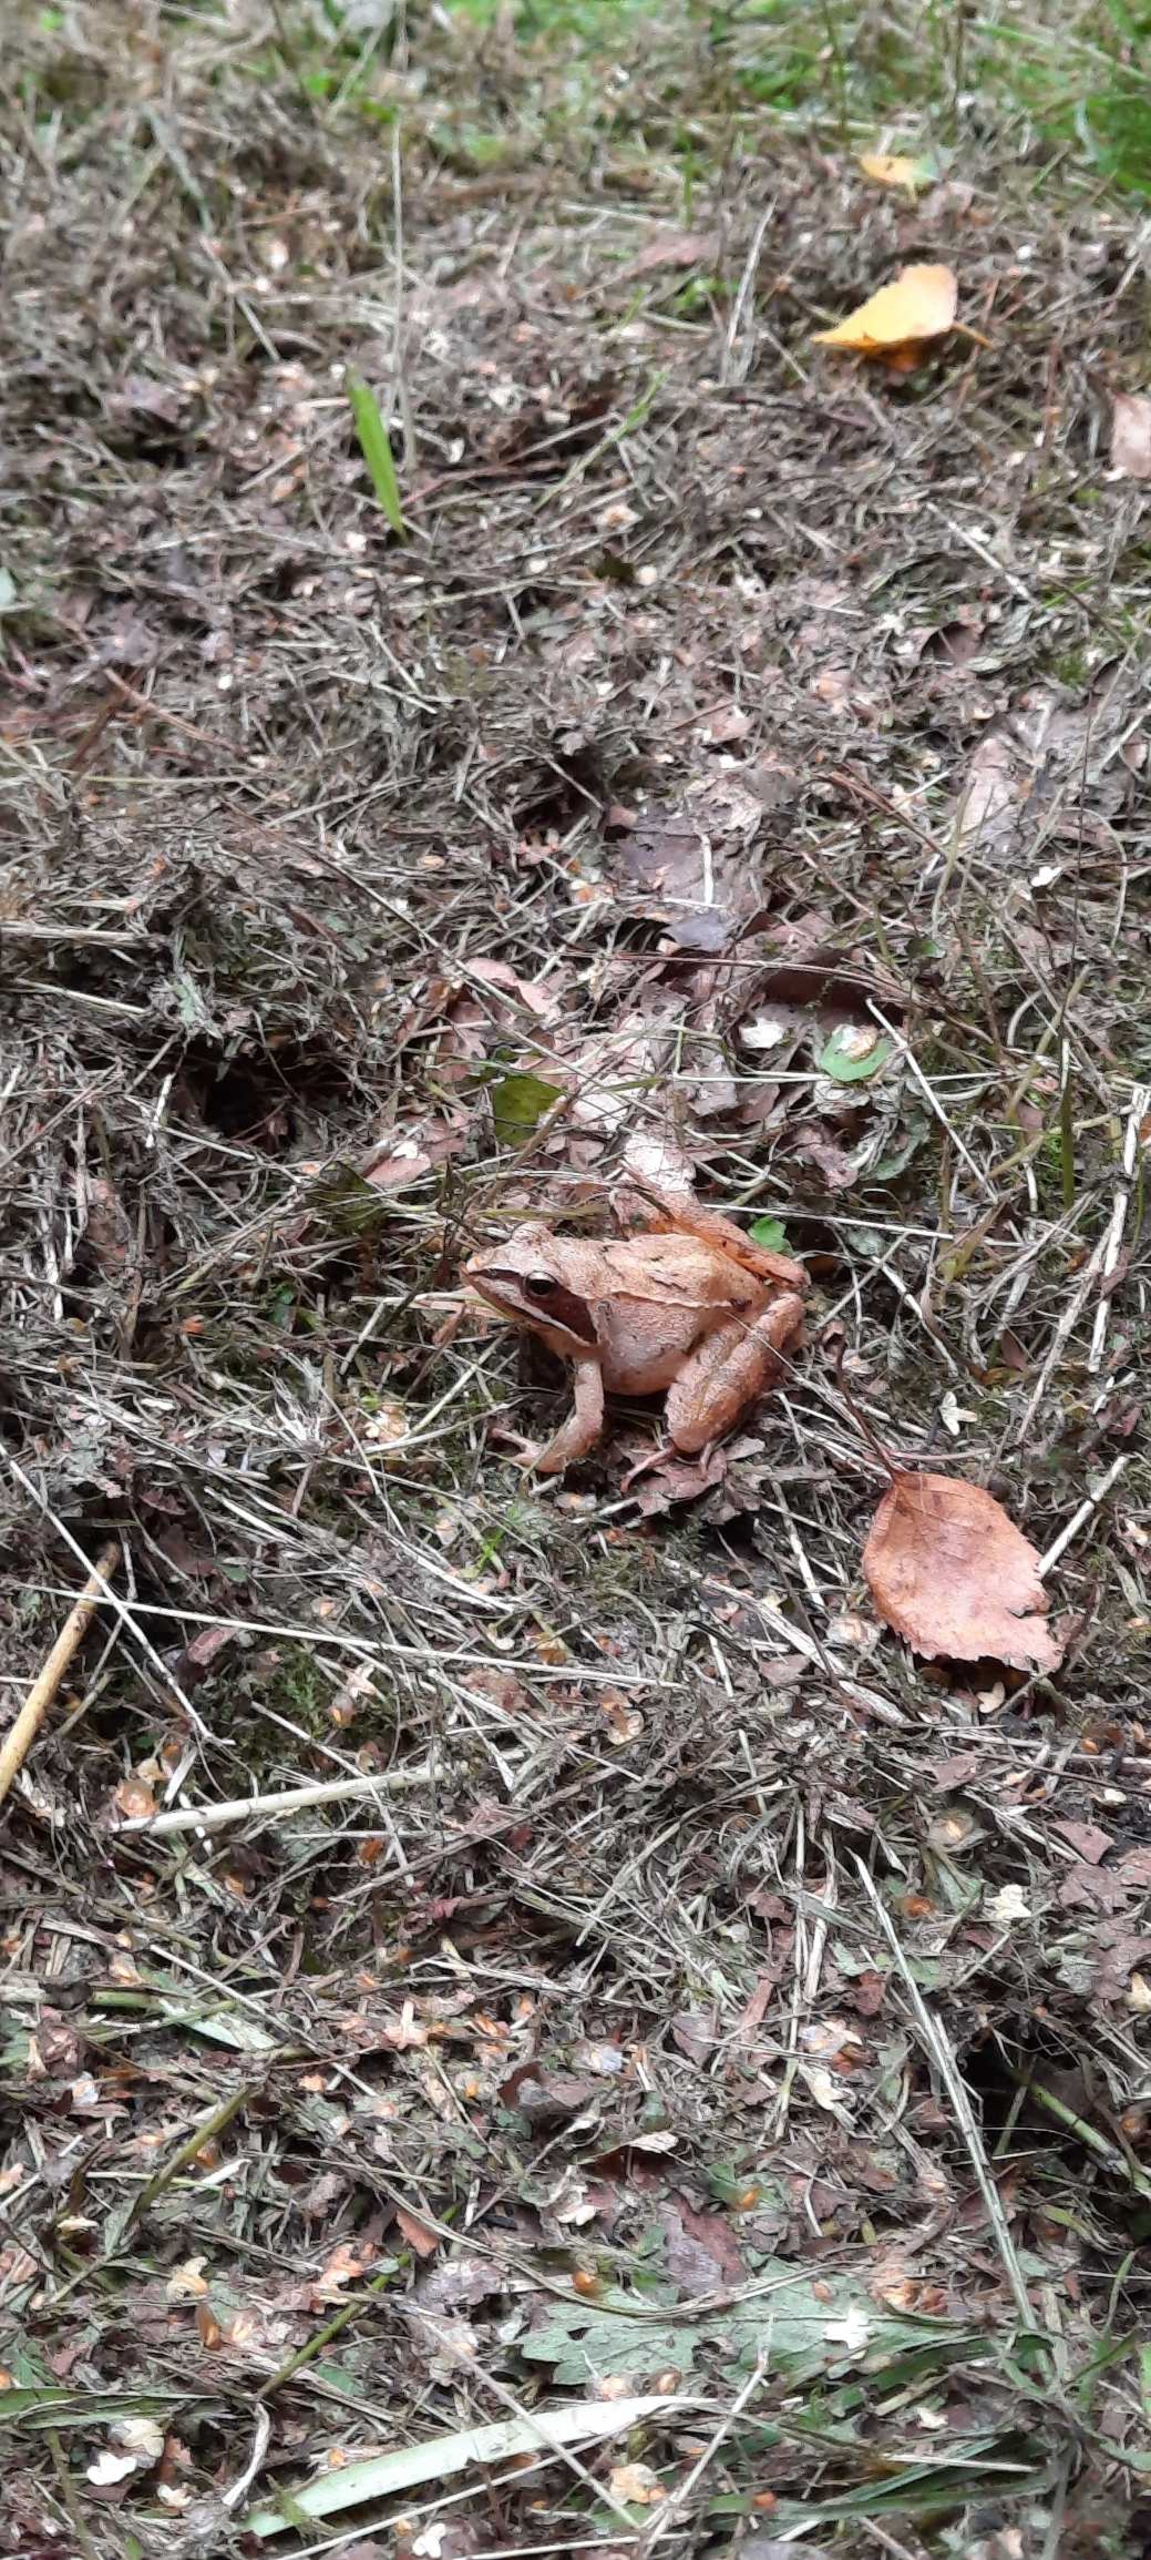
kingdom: Animalia
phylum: Chordata
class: Amphibia
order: Anura
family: Ranidae
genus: Rana
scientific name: Rana dalmatina
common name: Springfrø
